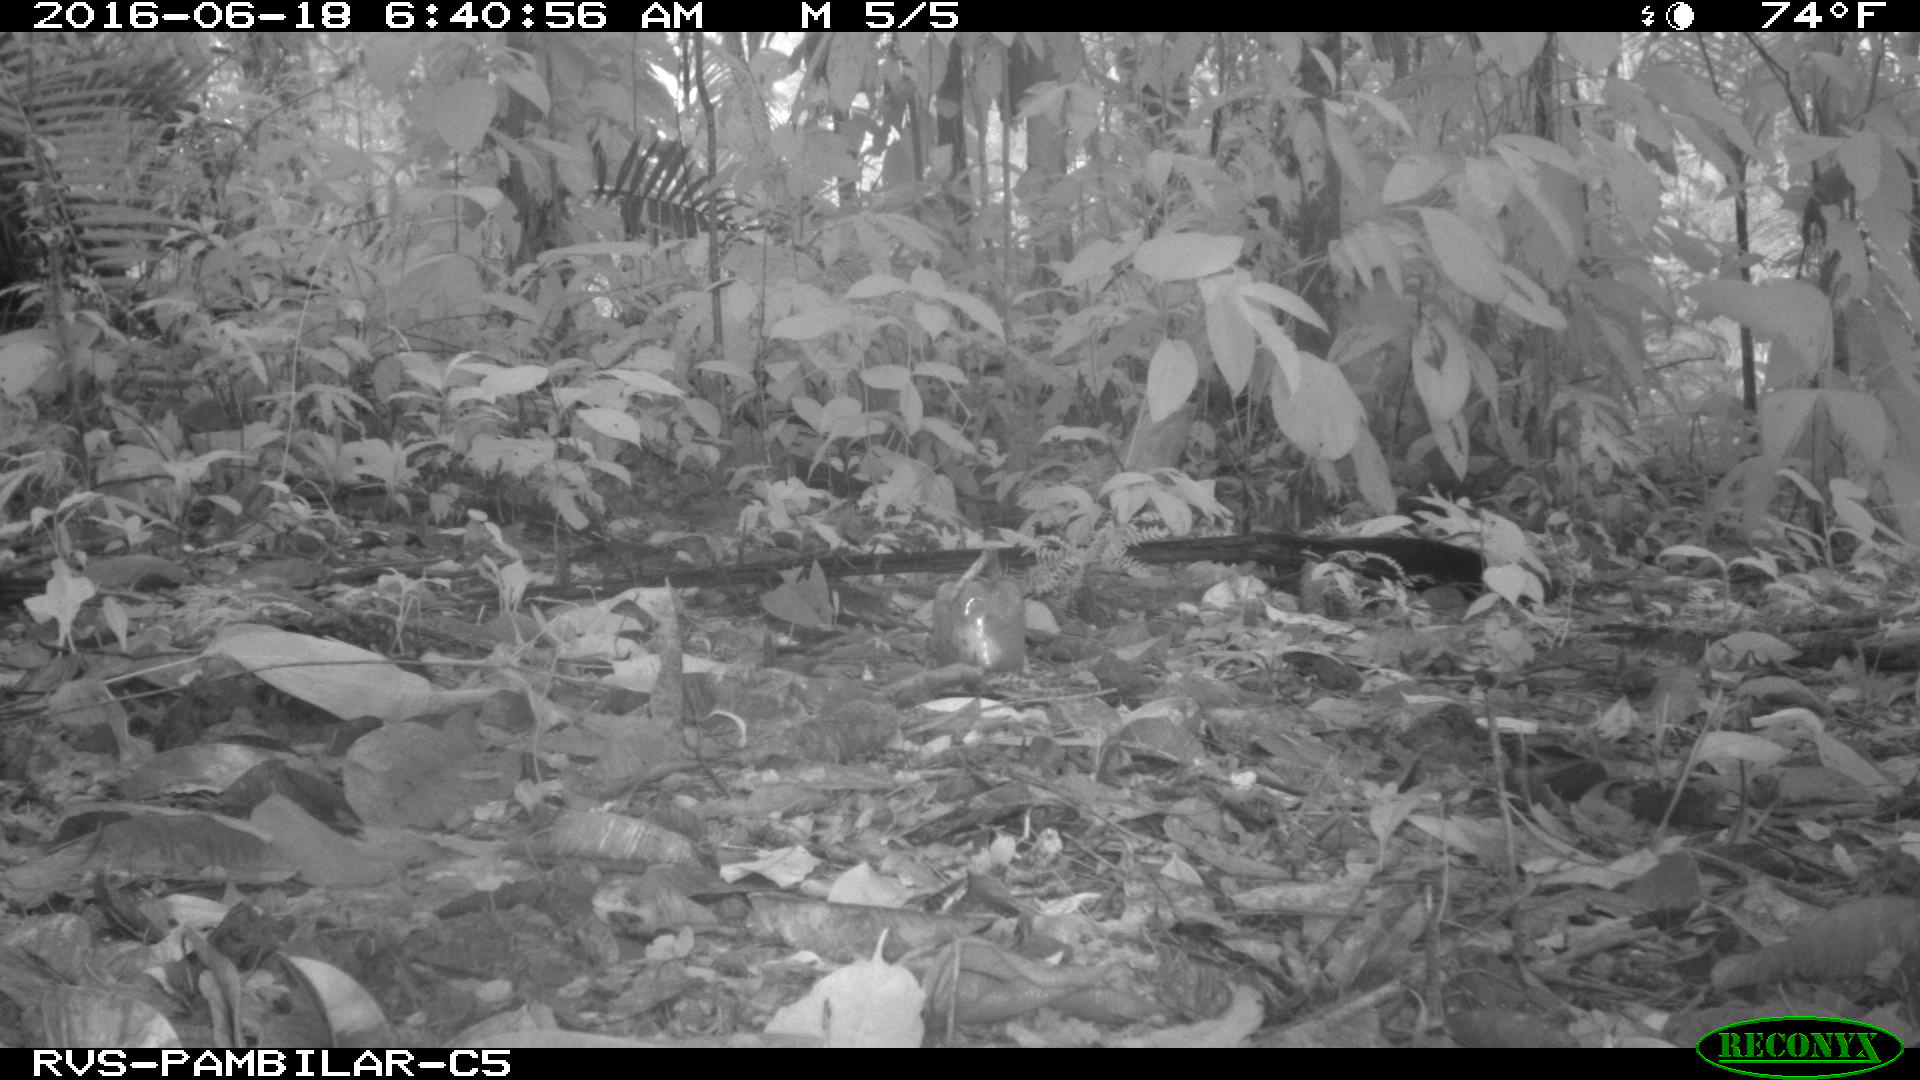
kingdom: Animalia
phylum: Chordata
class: Mammalia
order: Rodentia
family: Dasyproctidae
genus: Dasyprocta
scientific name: Dasyprocta punctata
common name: Central american agouti
